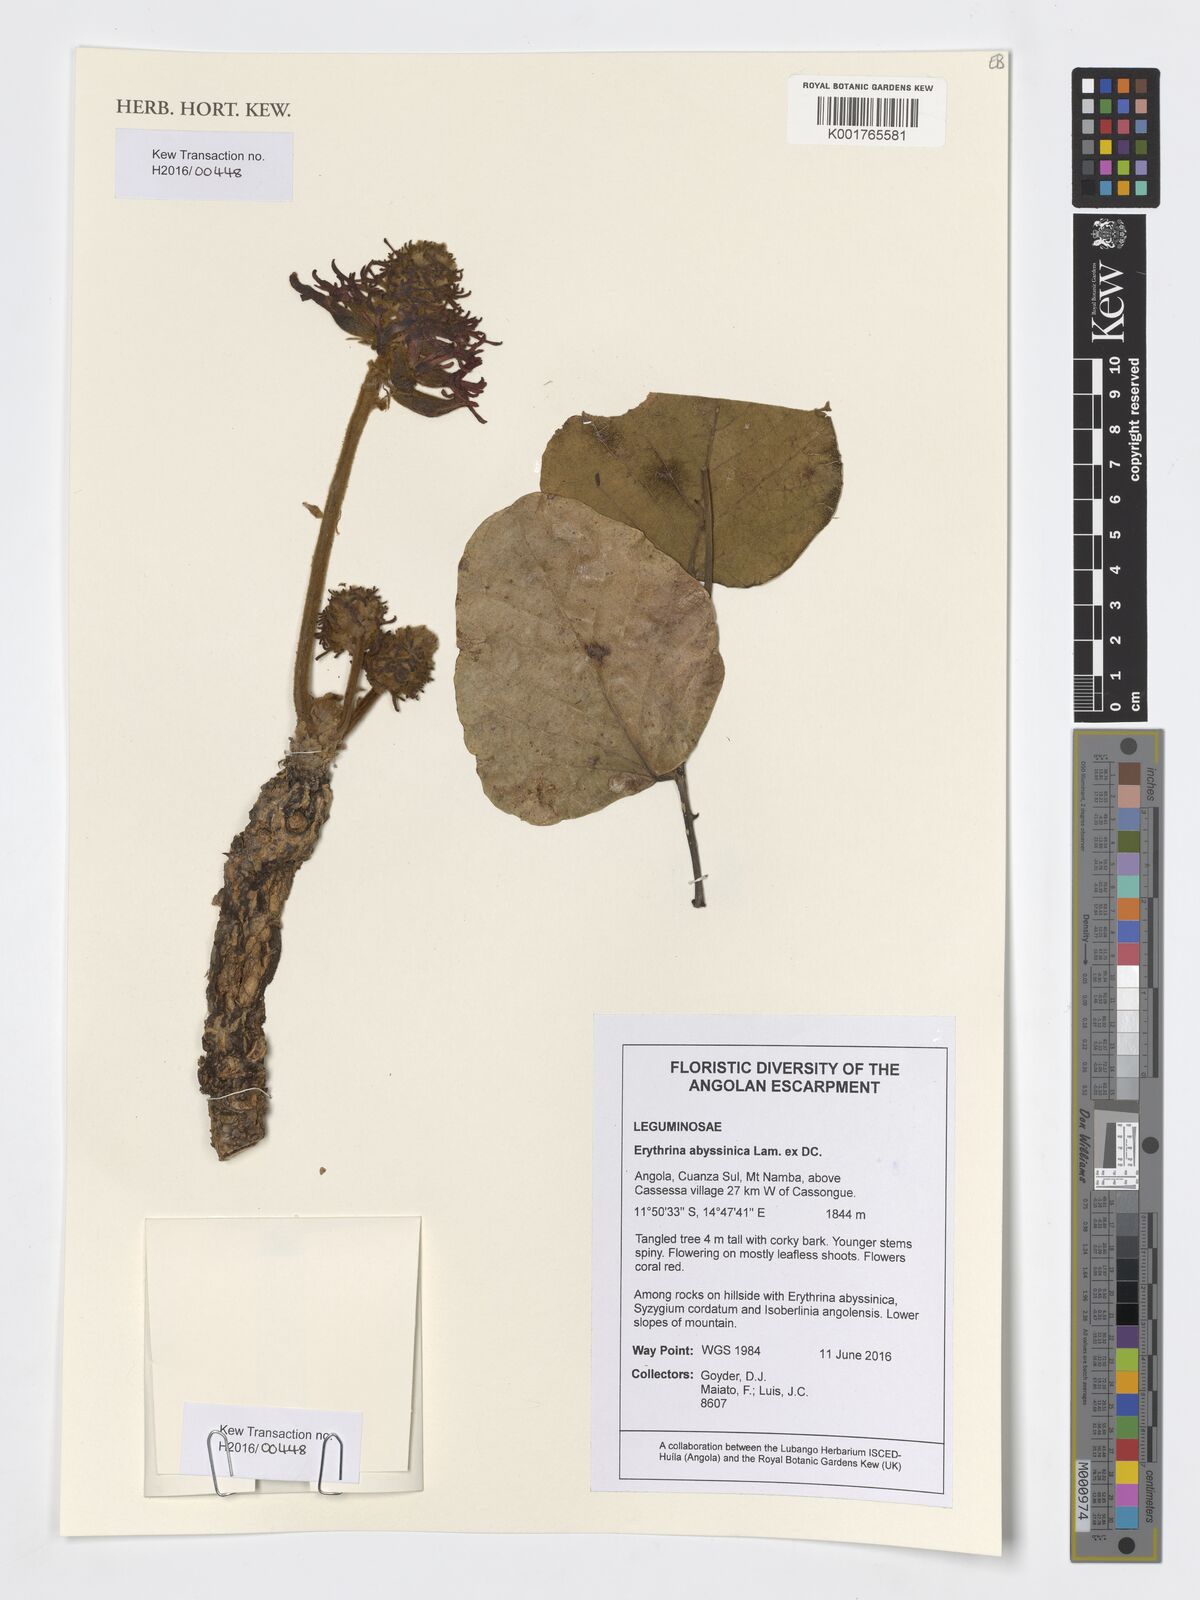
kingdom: Plantae
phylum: Tracheophyta
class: Magnoliopsida
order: Fabales
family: Fabaceae
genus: Erythrina
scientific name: Erythrina abyssinica
